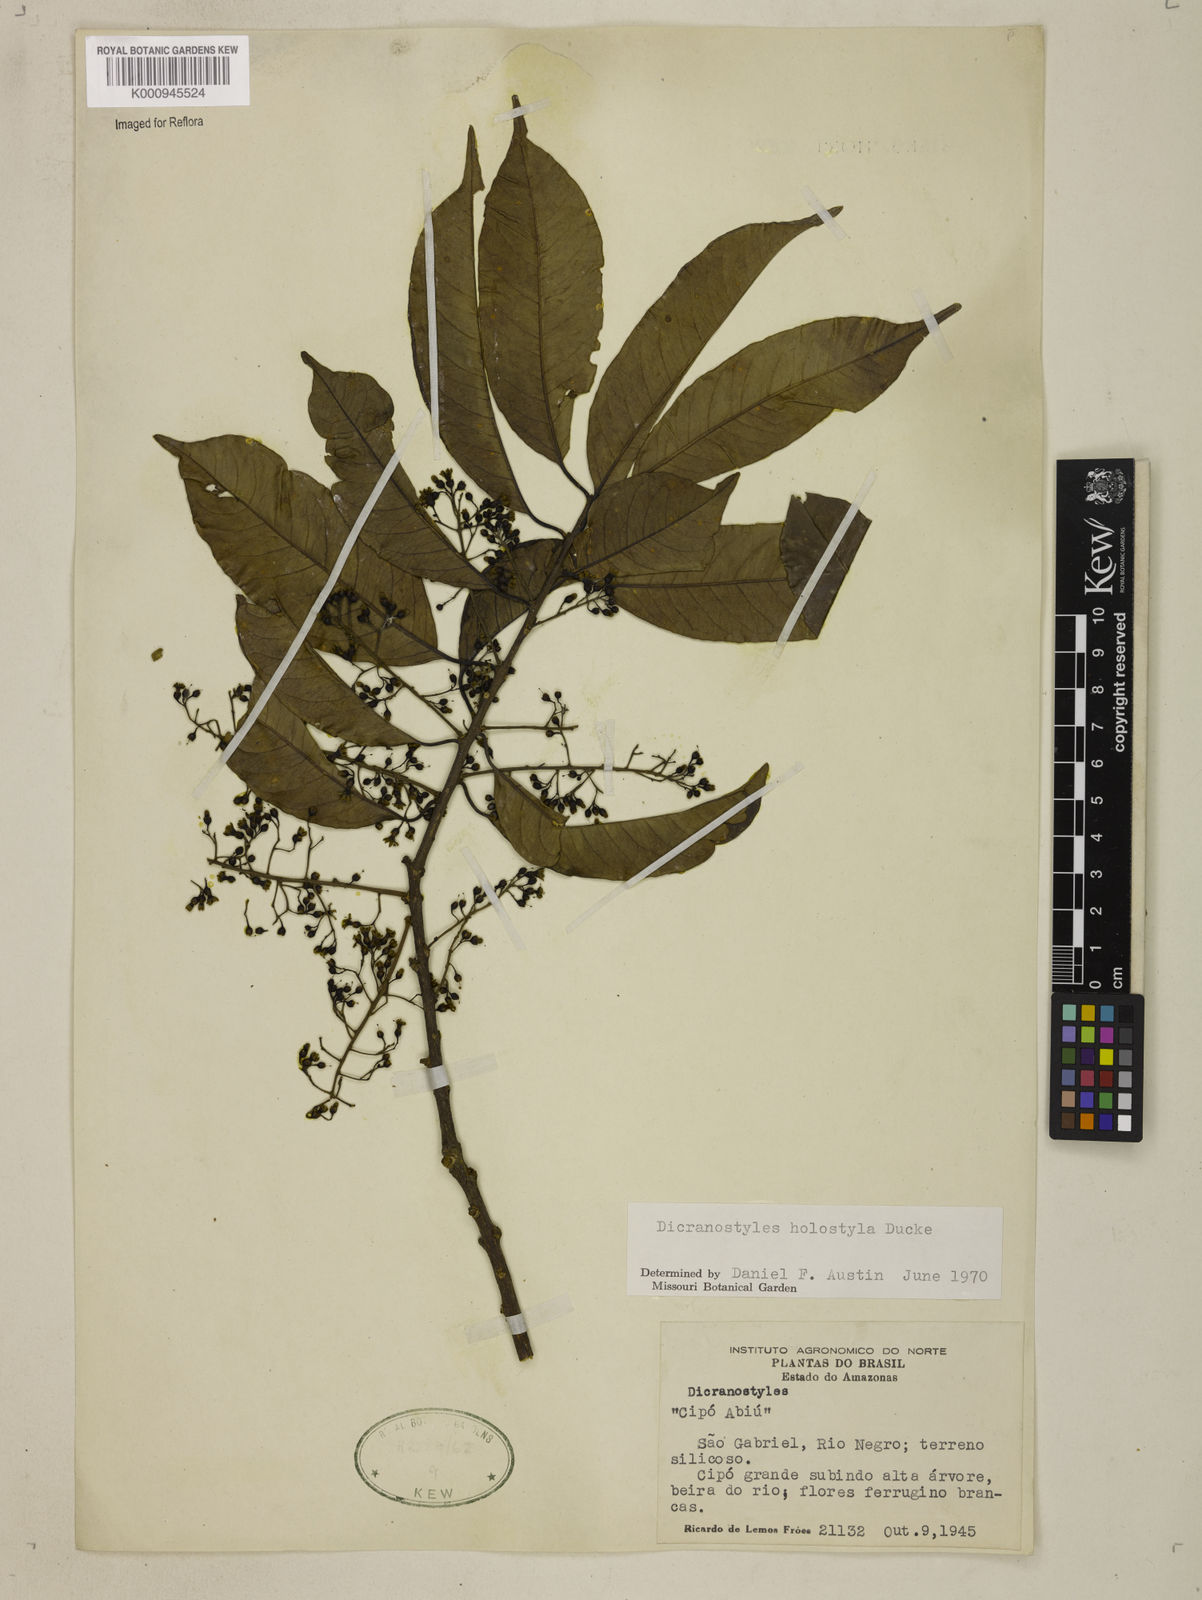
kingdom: Plantae
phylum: Tracheophyta
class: Magnoliopsida
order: Solanales
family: Convolvulaceae
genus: Dicranostyles
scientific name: Dicranostyles holostyla
